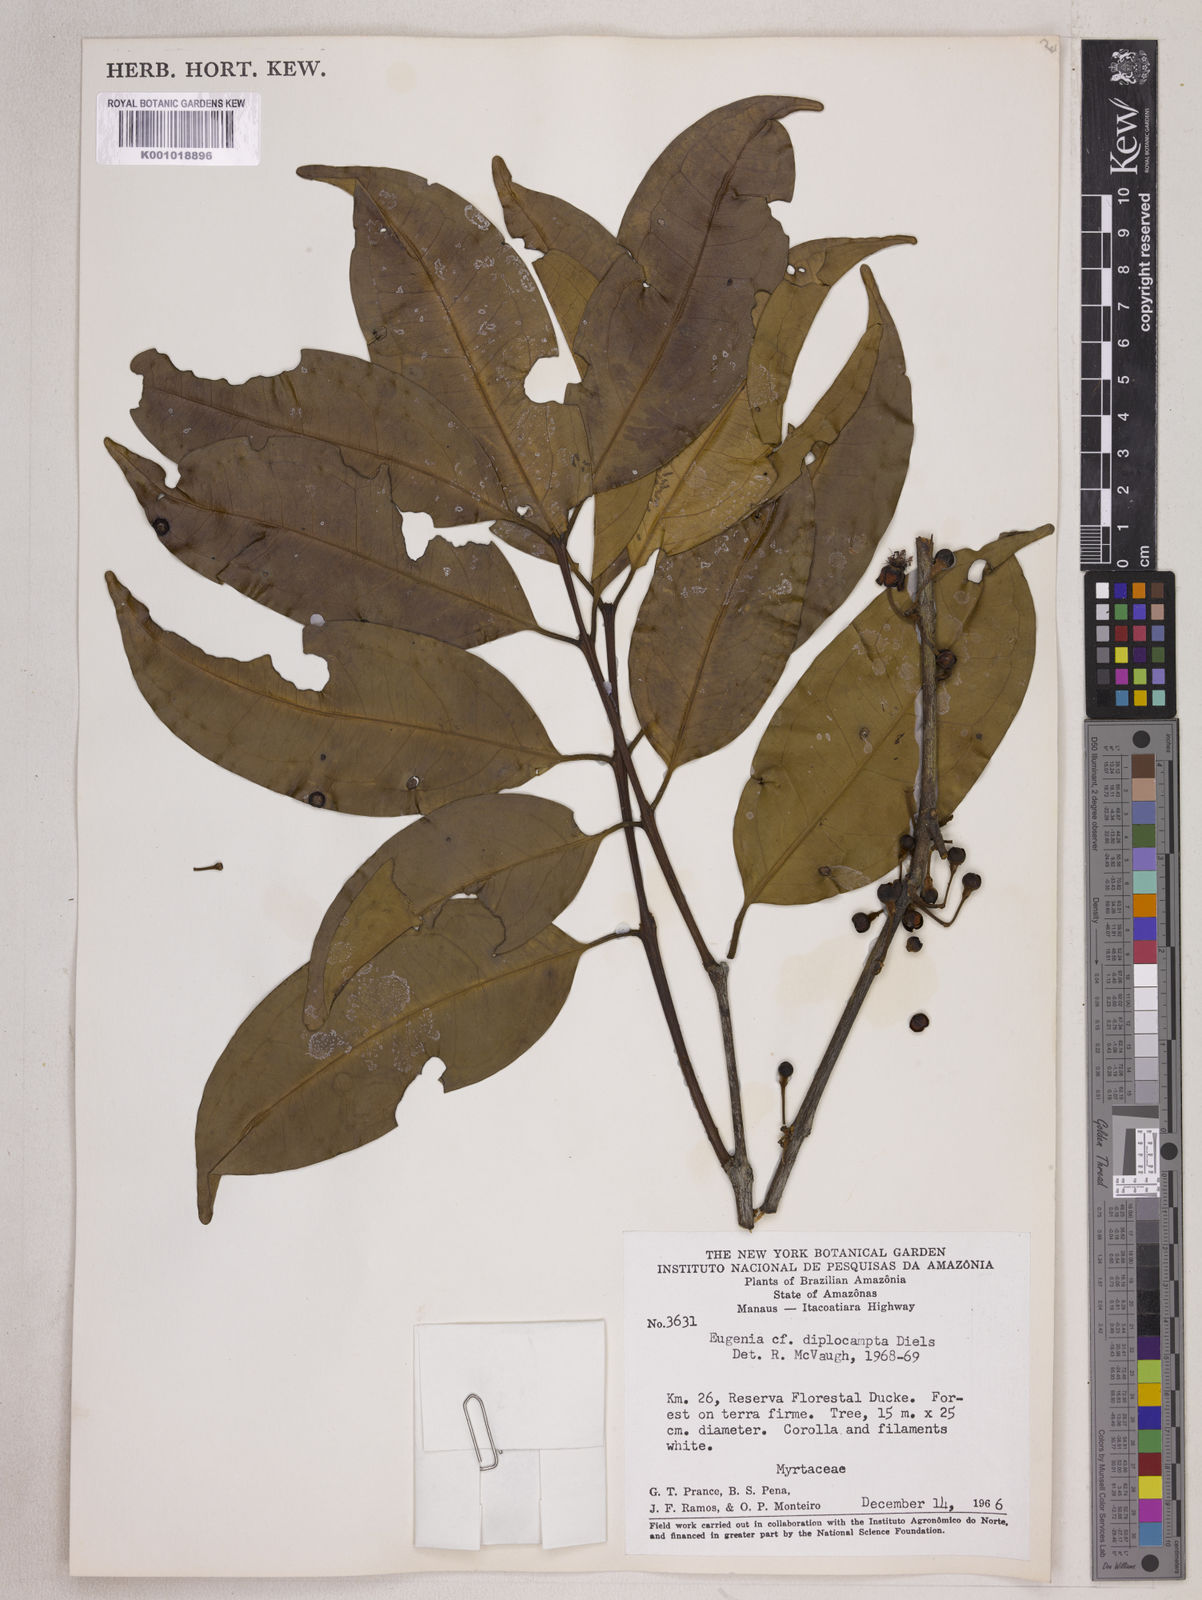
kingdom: Plantae
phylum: Tracheophyta
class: Magnoliopsida
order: Myrtales
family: Myrtaceae
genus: Eugenia
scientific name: Eugenia joseramosii
